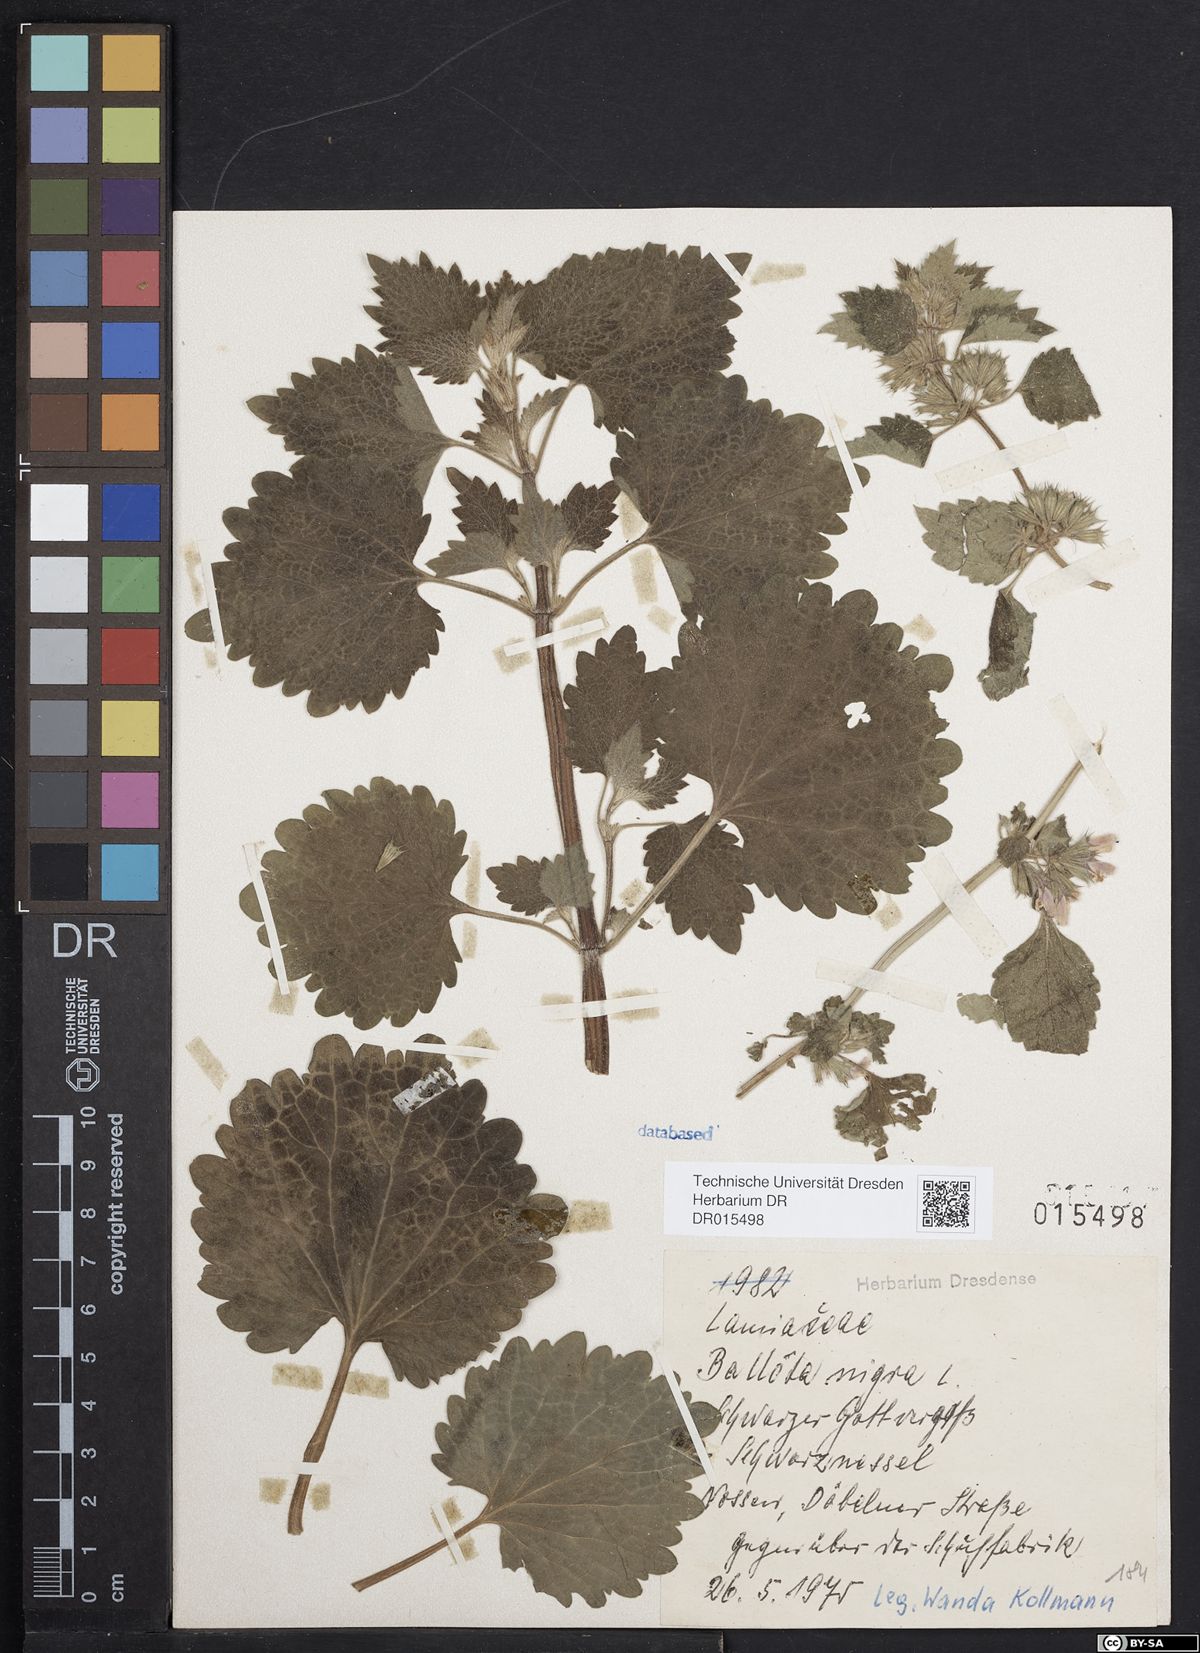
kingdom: Plantae
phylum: Tracheophyta
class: Magnoliopsida
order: Lamiales
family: Lamiaceae
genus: Ballota
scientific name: Ballota nigra
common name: Black horehound
